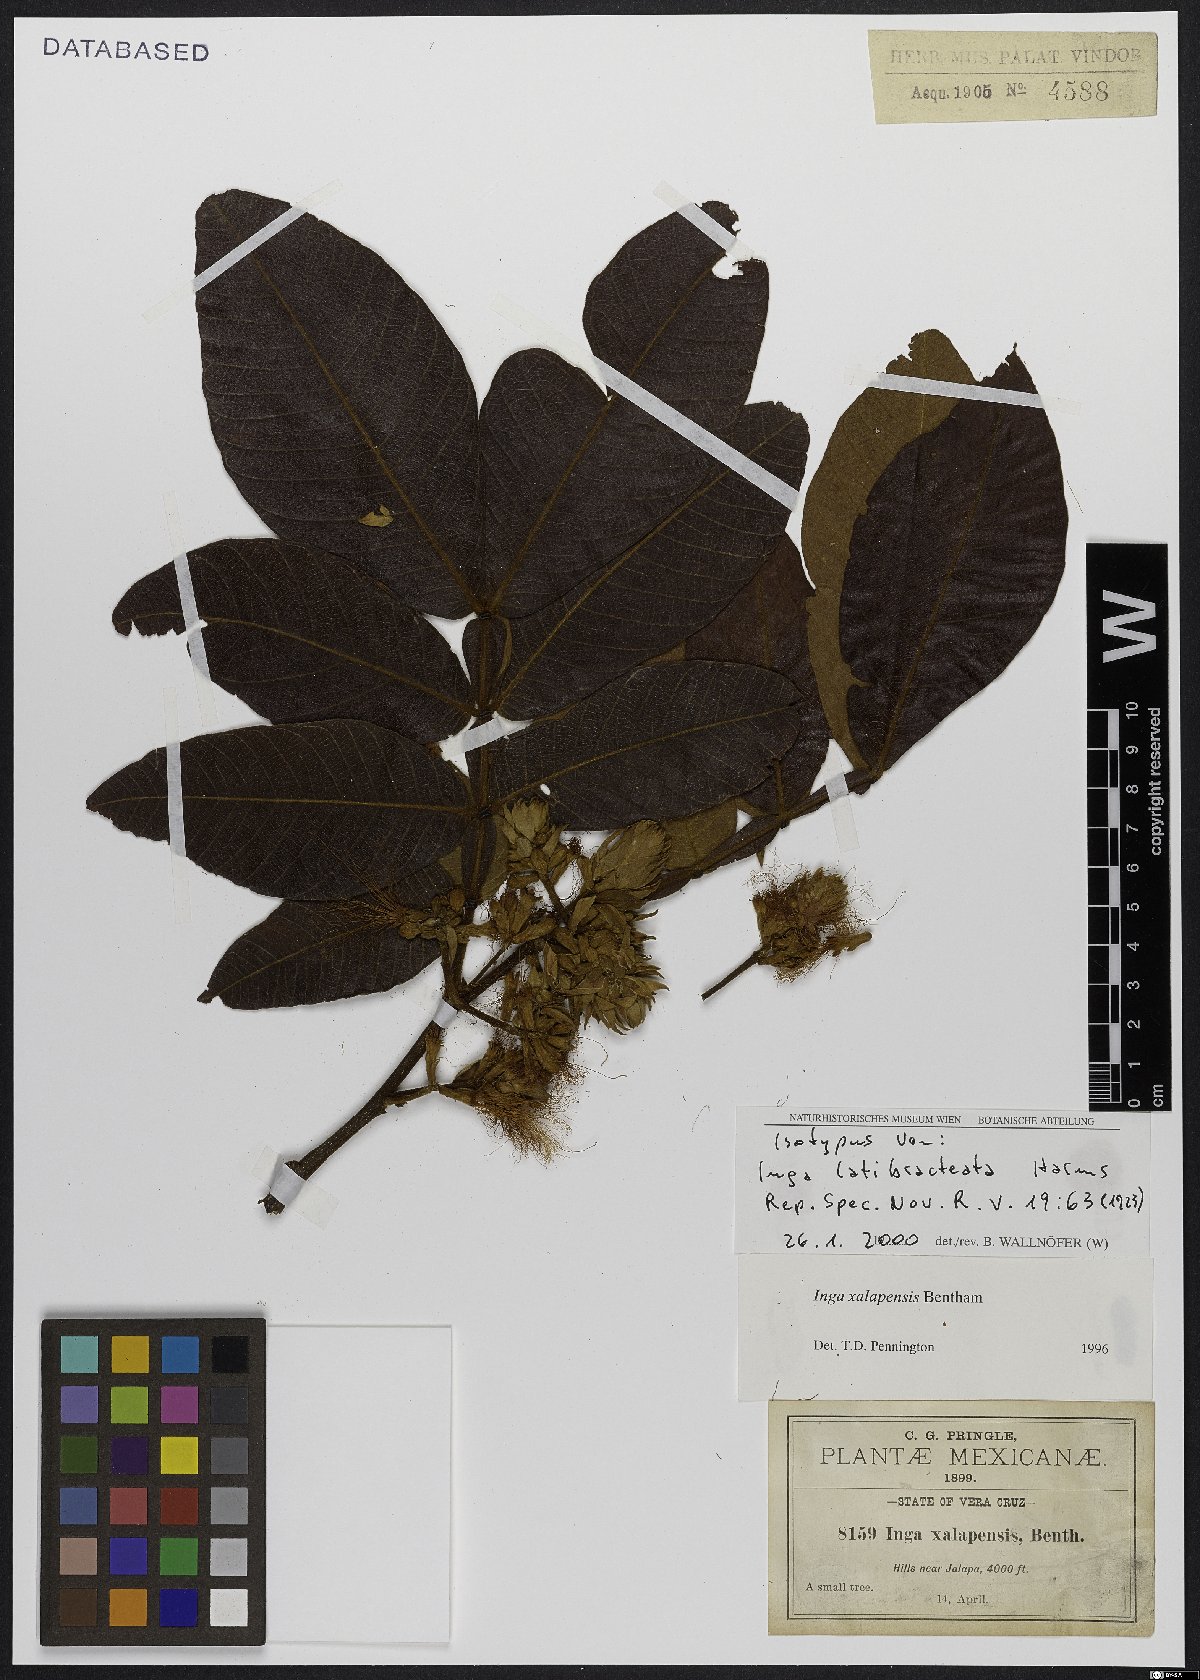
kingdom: Plantae
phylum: Tracheophyta
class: Magnoliopsida
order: Fabales
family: Fabaceae
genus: Inga
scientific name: Inga xalapensis
